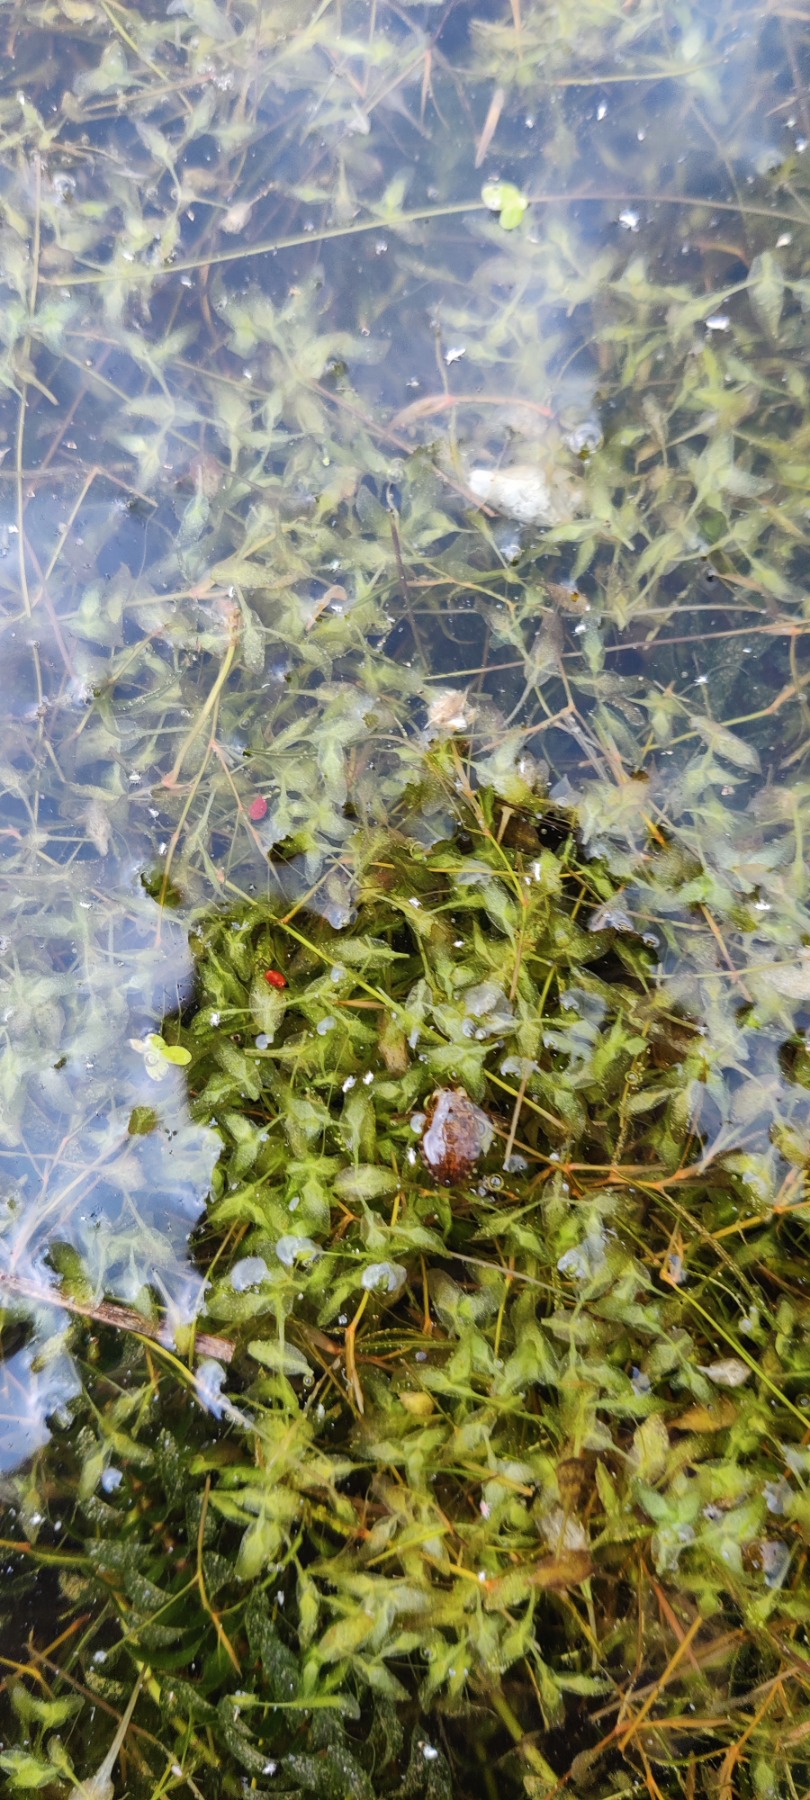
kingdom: Plantae
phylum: Tracheophyta
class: Liliopsida
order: Alismatales
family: Araceae
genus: Lemna
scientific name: Lemna trisulca
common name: Kors-andemad
